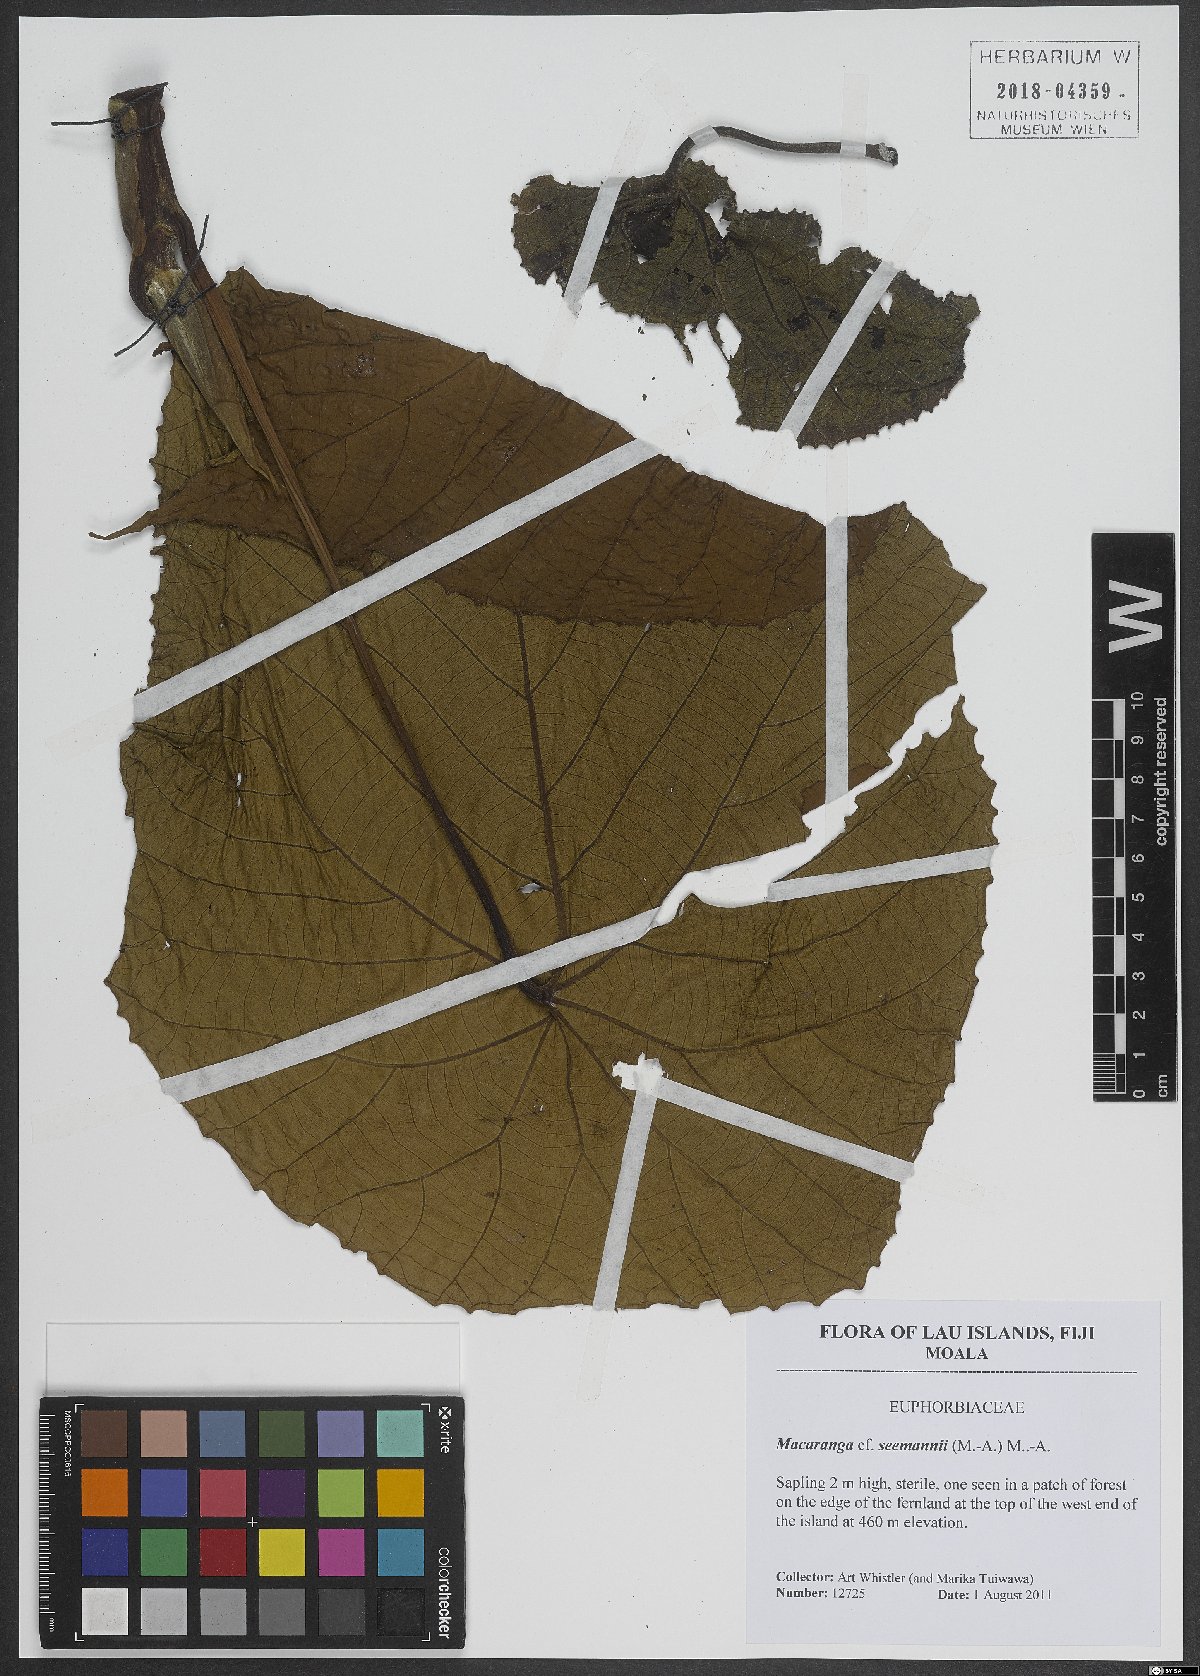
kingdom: Plantae
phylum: Tracheophyta
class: Magnoliopsida
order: Malpighiales
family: Euphorbiaceae
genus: Macaranga
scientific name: Macaranga seemannii
